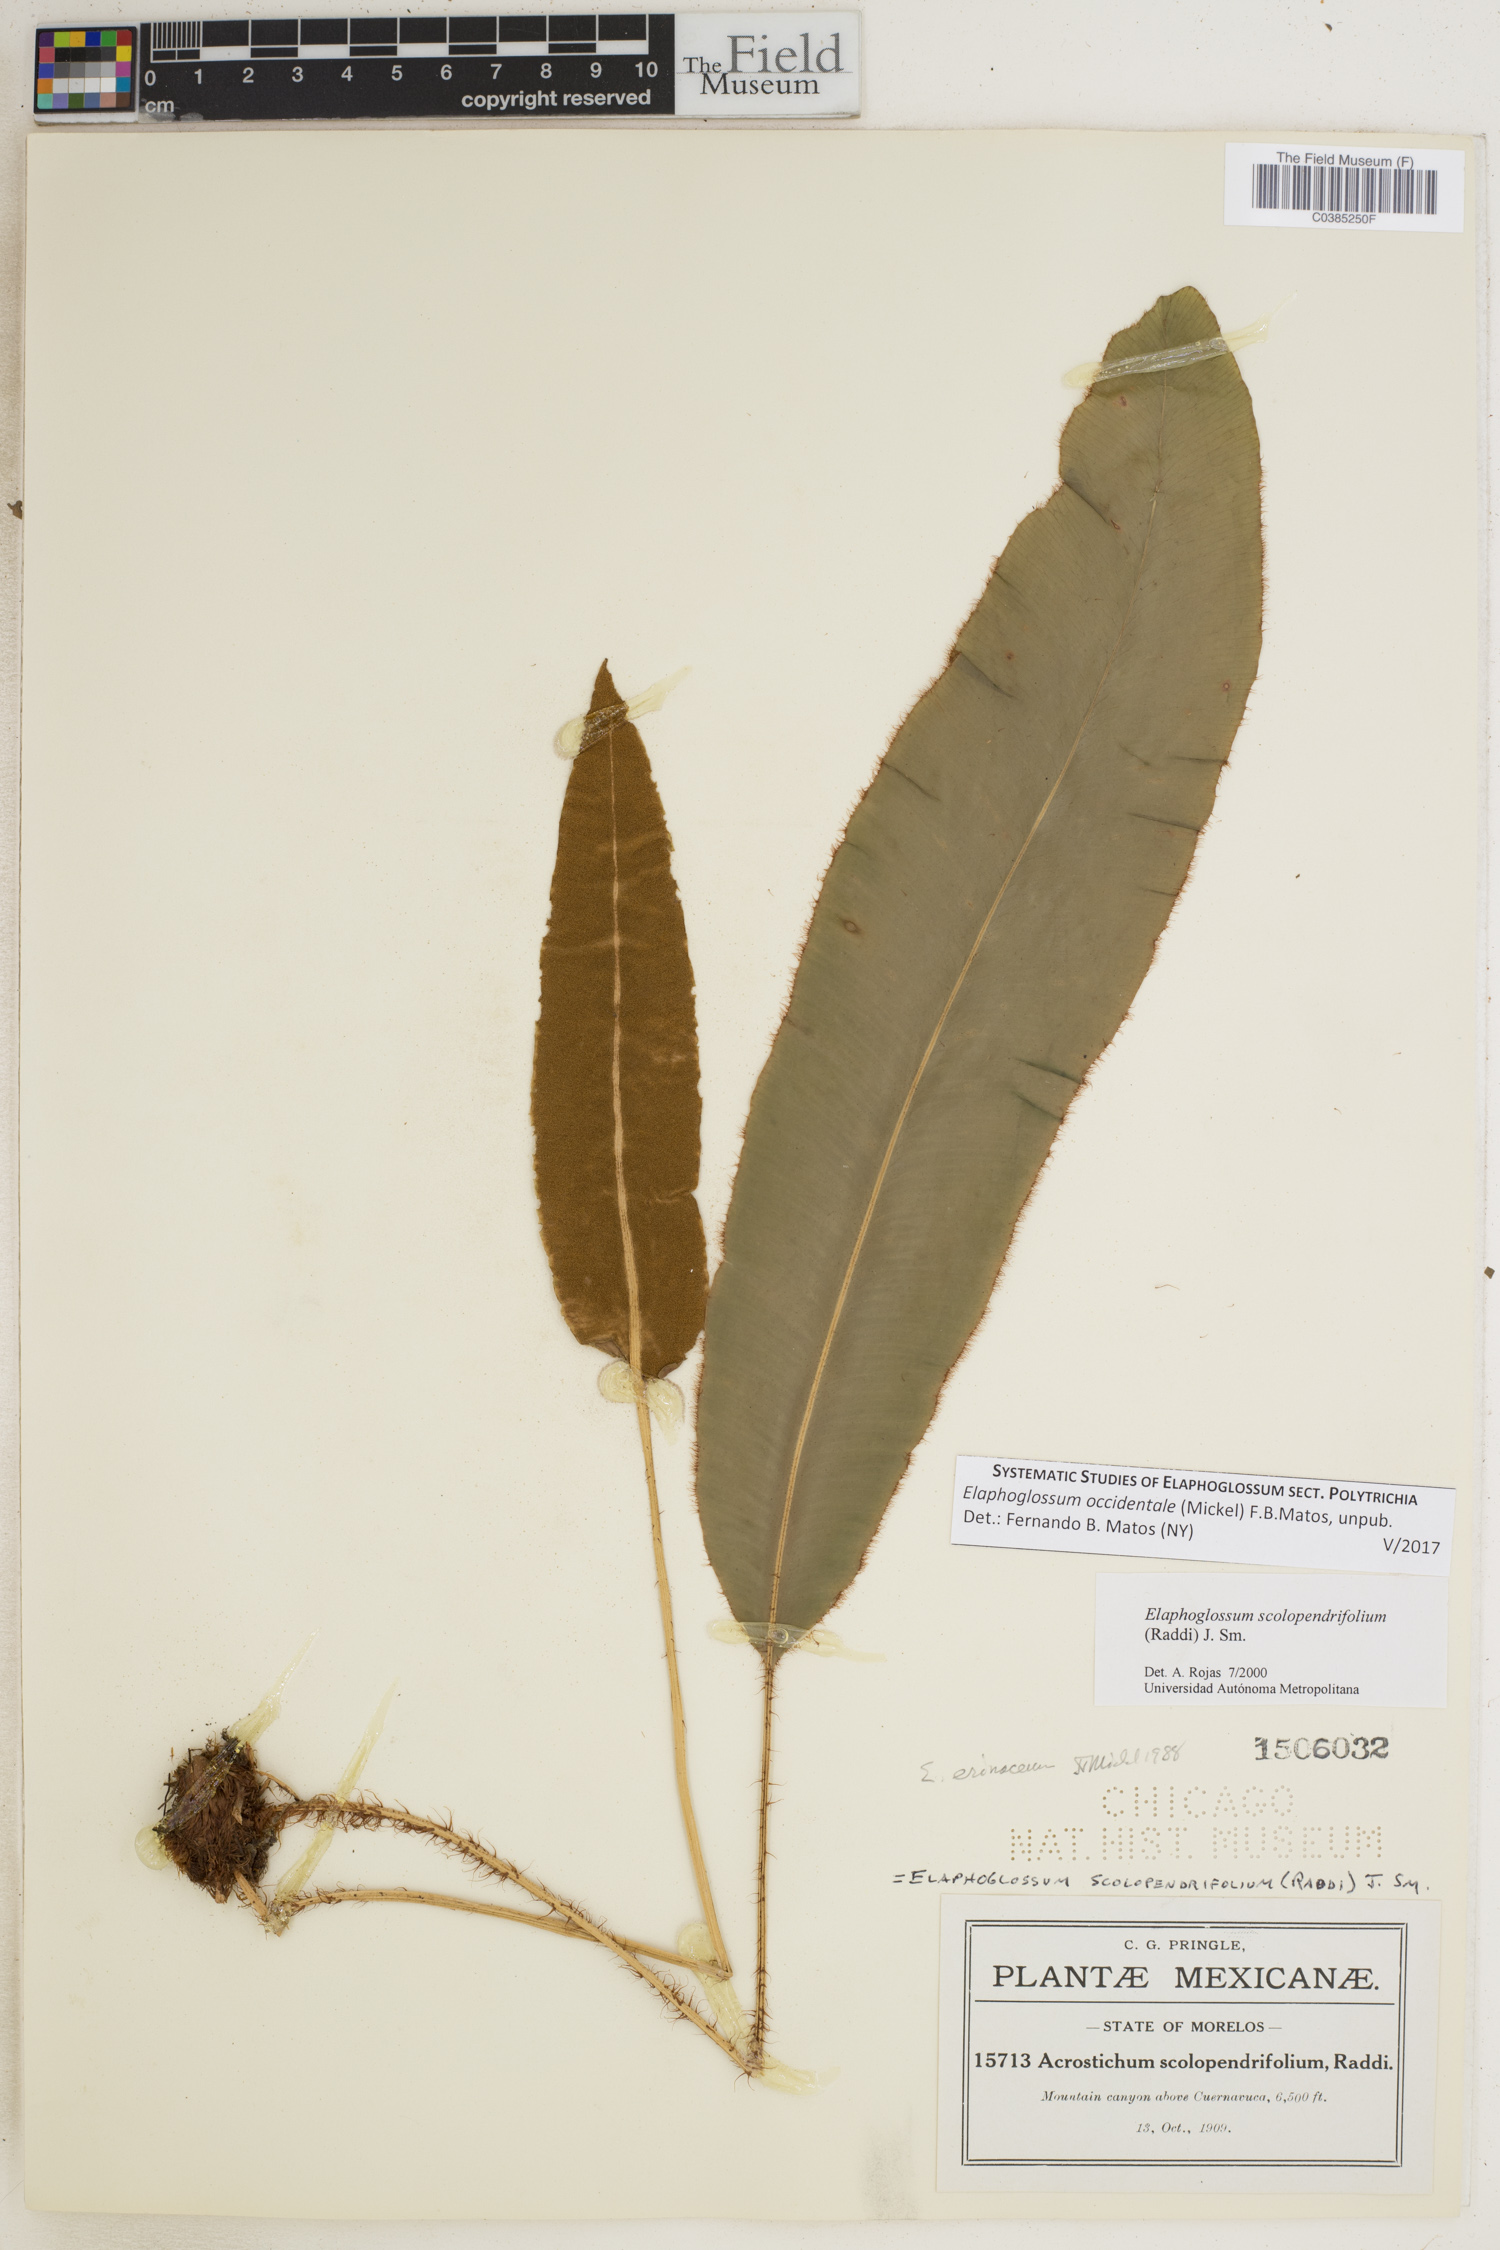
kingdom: Plantae
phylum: Tracheophyta
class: Polypodiopsida
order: Polypodiales
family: Dryopteridaceae
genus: Elaphoglossum
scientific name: Elaphoglossum scolopendrifolium
